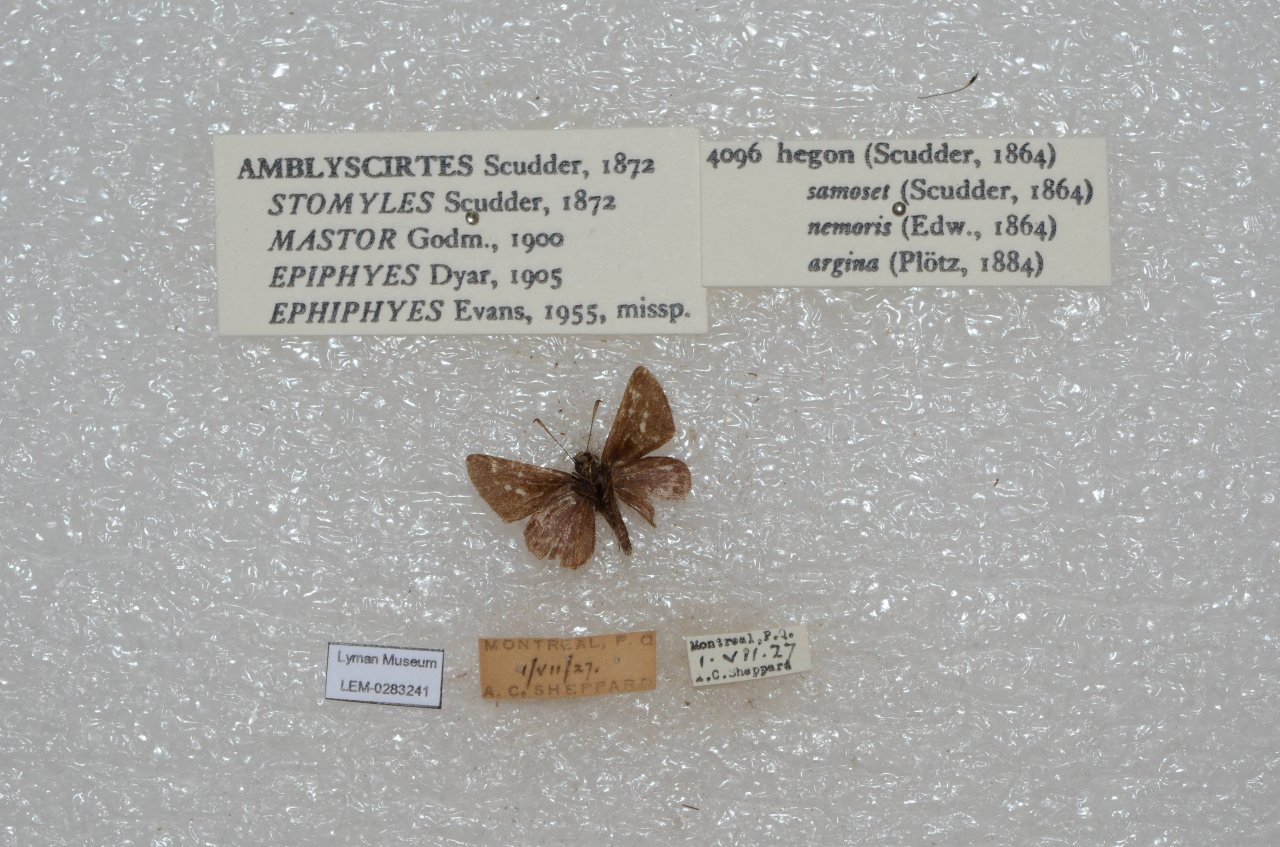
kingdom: Animalia
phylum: Arthropoda
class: Insecta
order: Lepidoptera
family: Hesperiidae
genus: Mastor
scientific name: Mastor hegon
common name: Pepper and Salt Skipper
